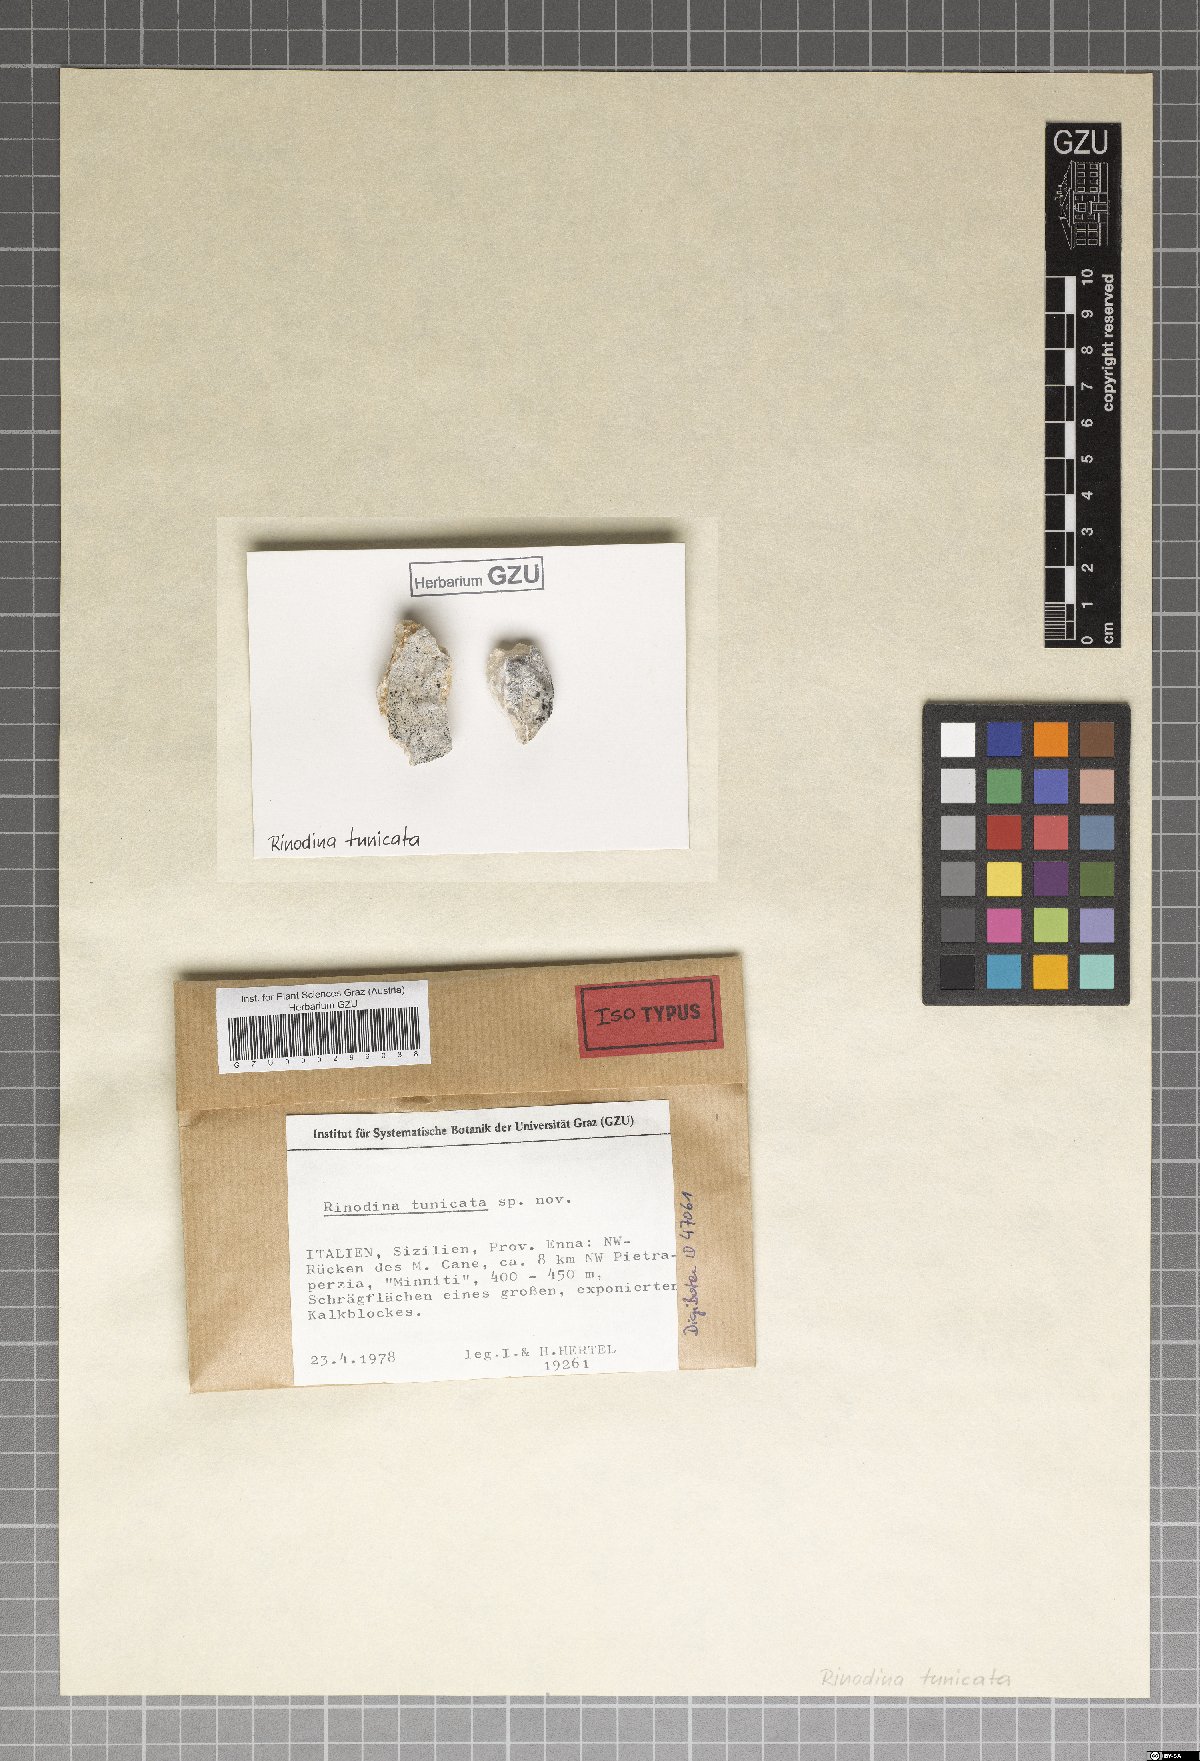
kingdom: Fungi
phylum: Ascomycota
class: Lecanoromycetes
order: Caliciales
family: Physciaceae
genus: Rinodina
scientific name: Rinodina tunicata
